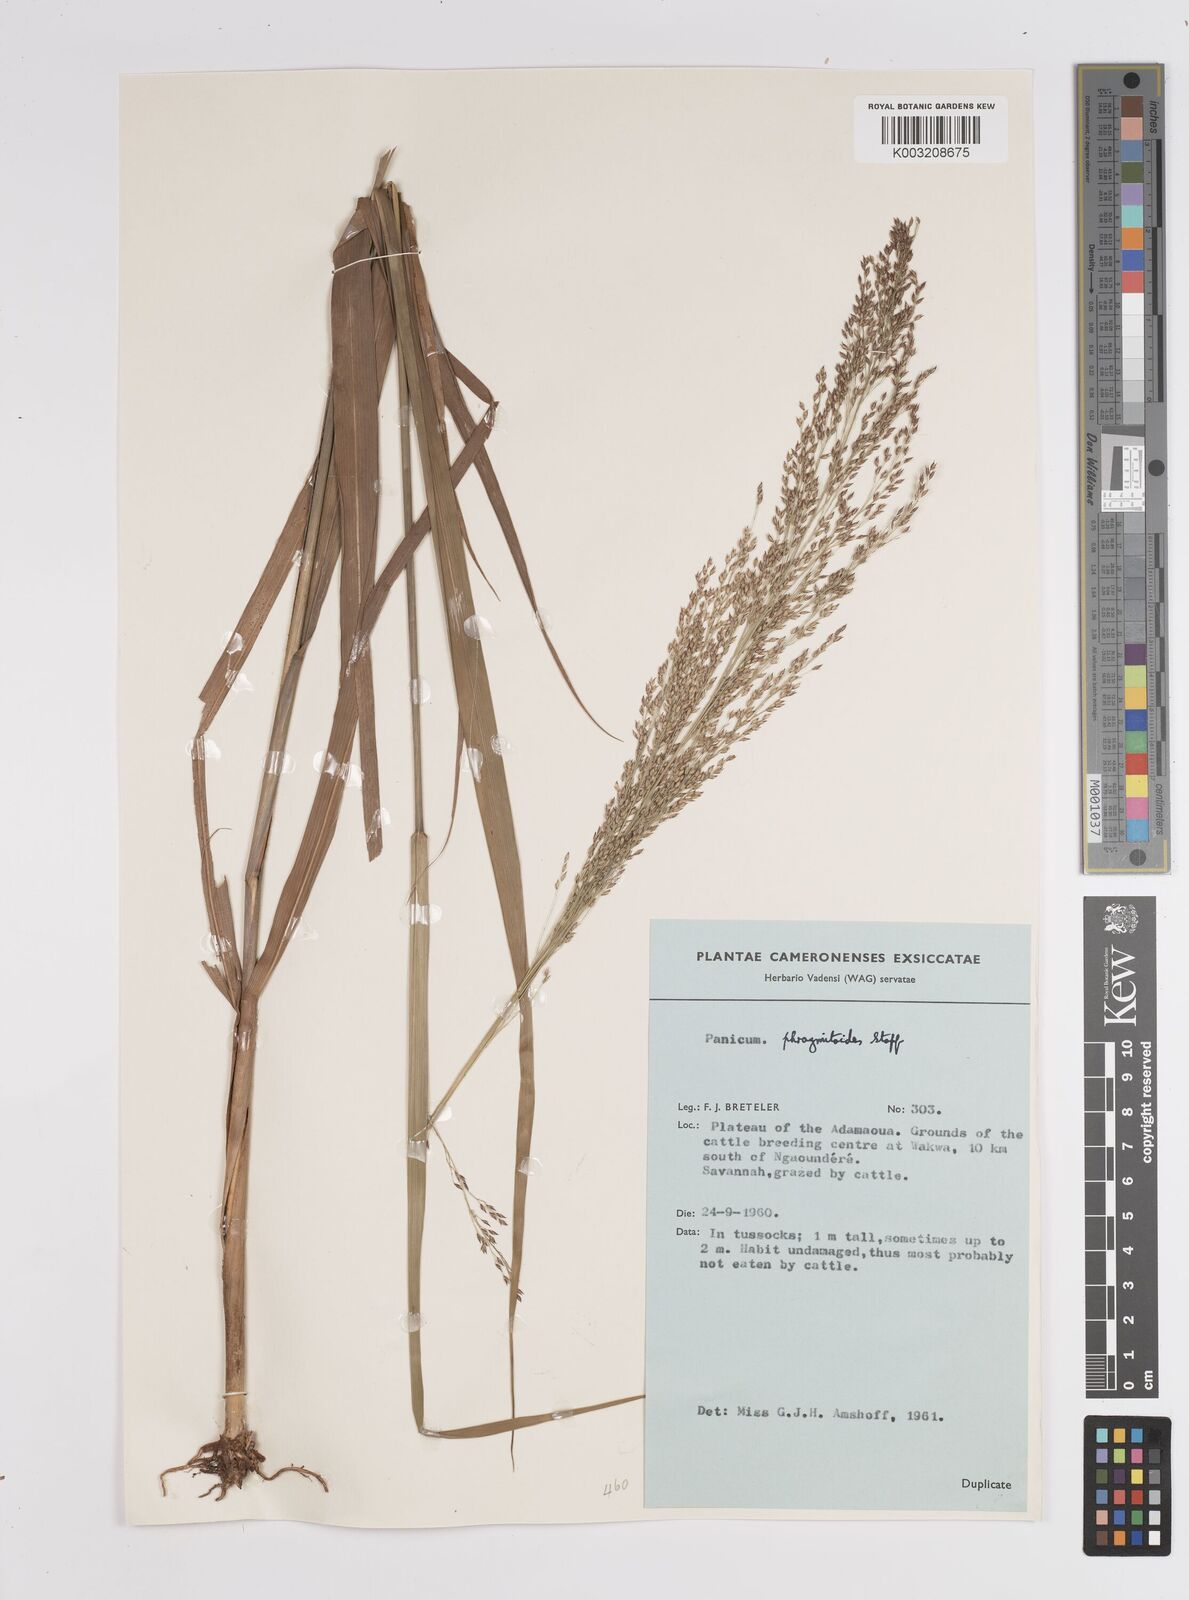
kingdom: Plantae
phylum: Tracheophyta
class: Liliopsida
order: Poales
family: Poaceae
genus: Panicum
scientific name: Panicum phragmitoides
